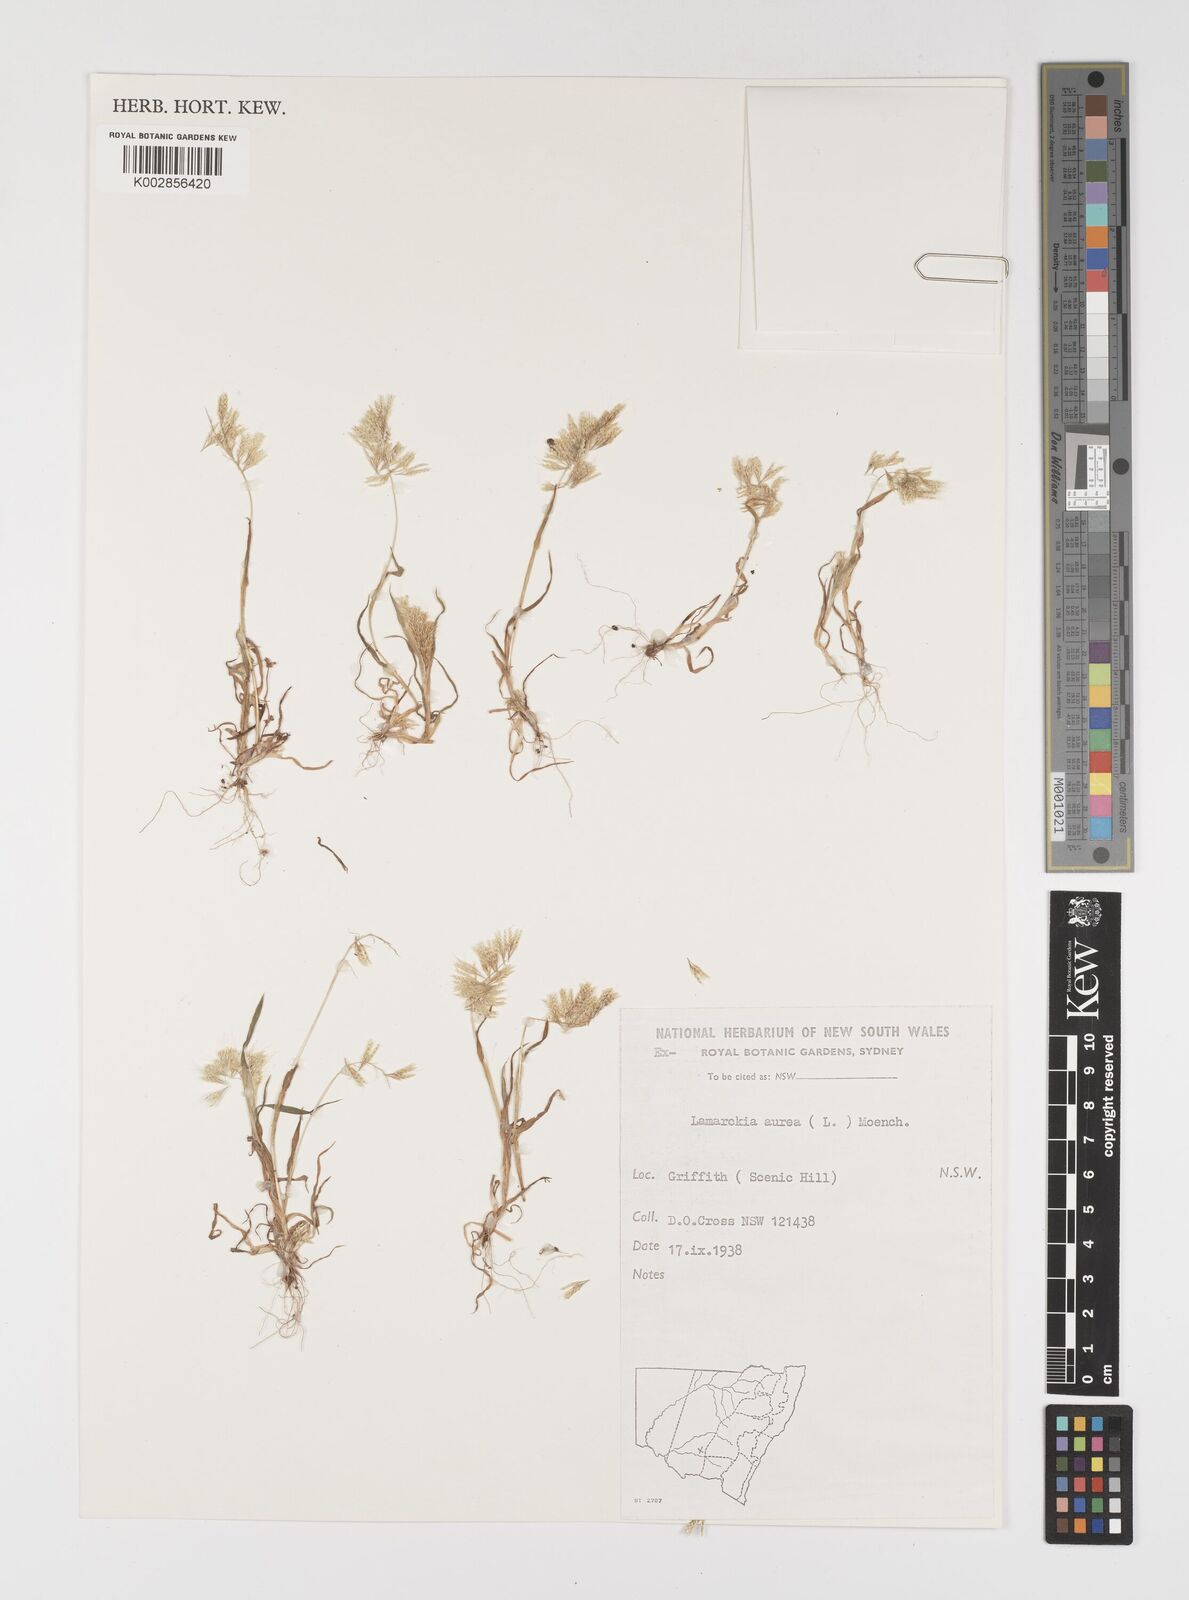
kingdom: Plantae
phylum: Tracheophyta
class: Liliopsida
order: Poales
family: Poaceae
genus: Lamarckia
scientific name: Lamarckia aurea
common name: Golden dog's-tail
